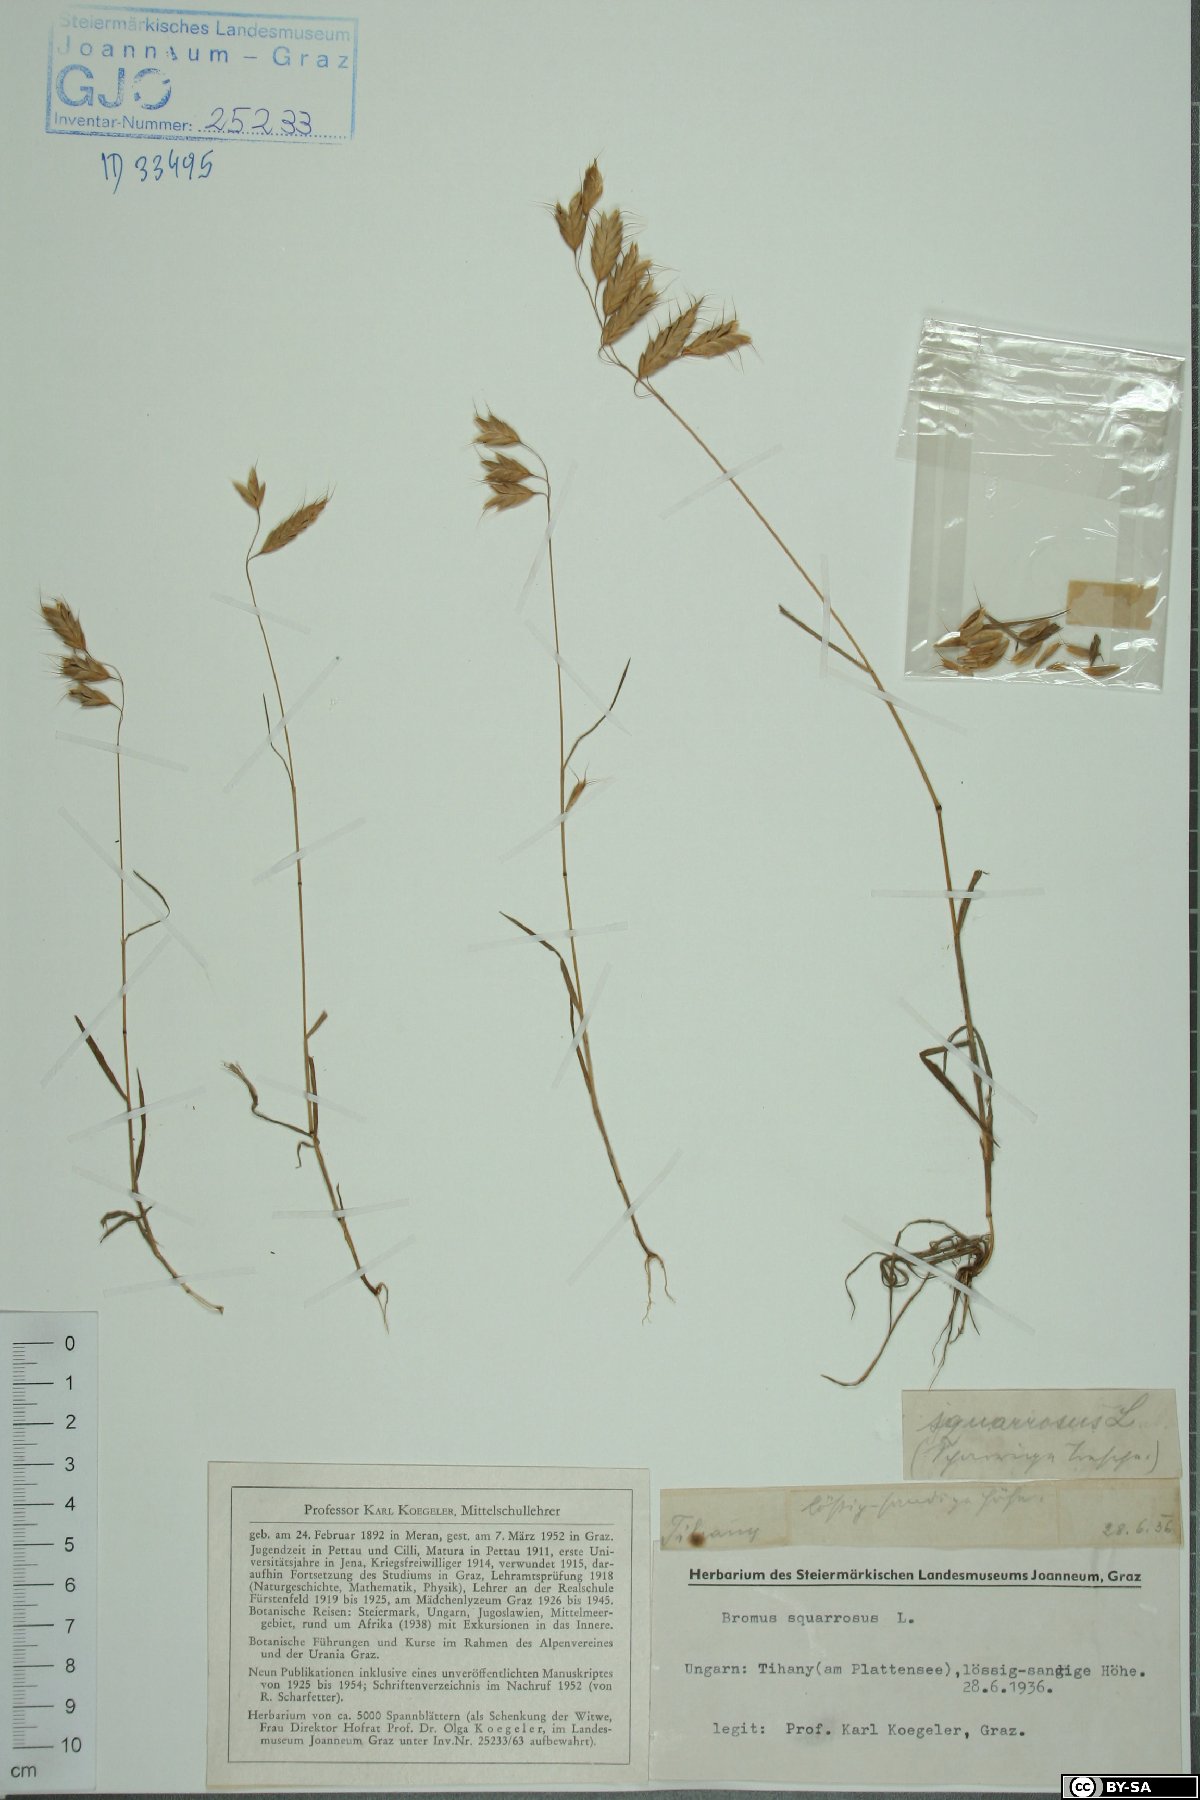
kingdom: Plantae
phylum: Tracheophyta
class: Liliopsida
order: Poales
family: Poaceae
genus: Bromus
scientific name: Bromus squarrosus
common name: Corn brome
